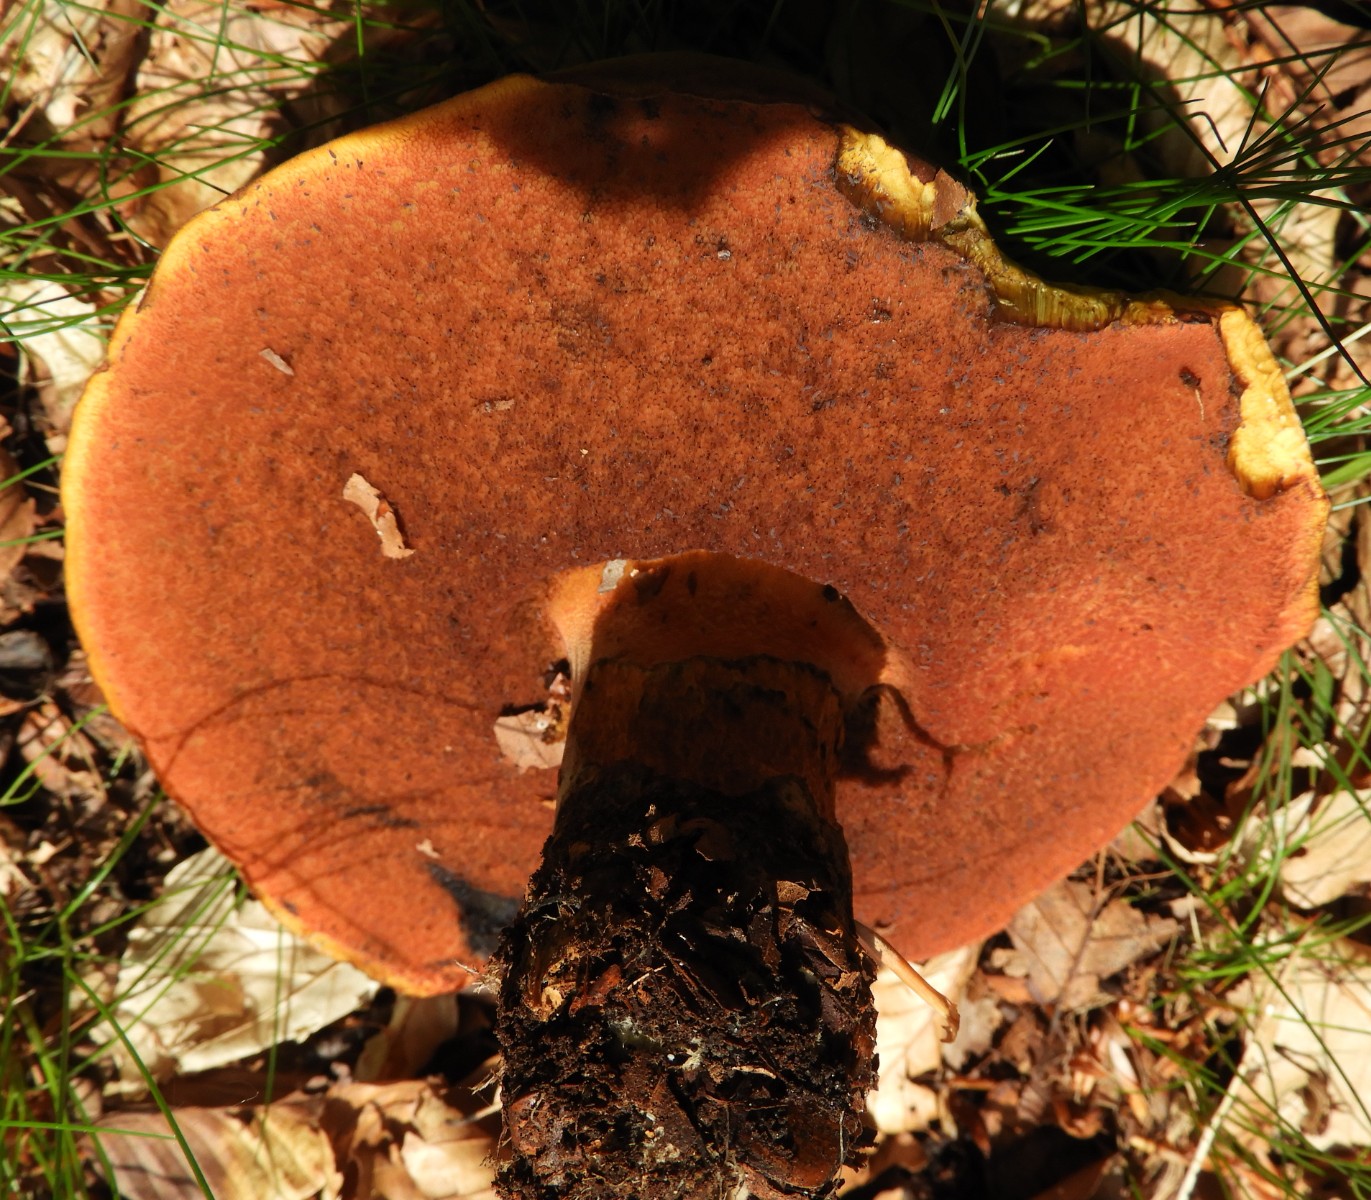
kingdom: Fungi
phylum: Basidiomycota
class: Agaricomycetes
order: Boletales
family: Boletaceae
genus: Neoboletus
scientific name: Neoboletus erythropus
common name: punktstokket indigorørhat
